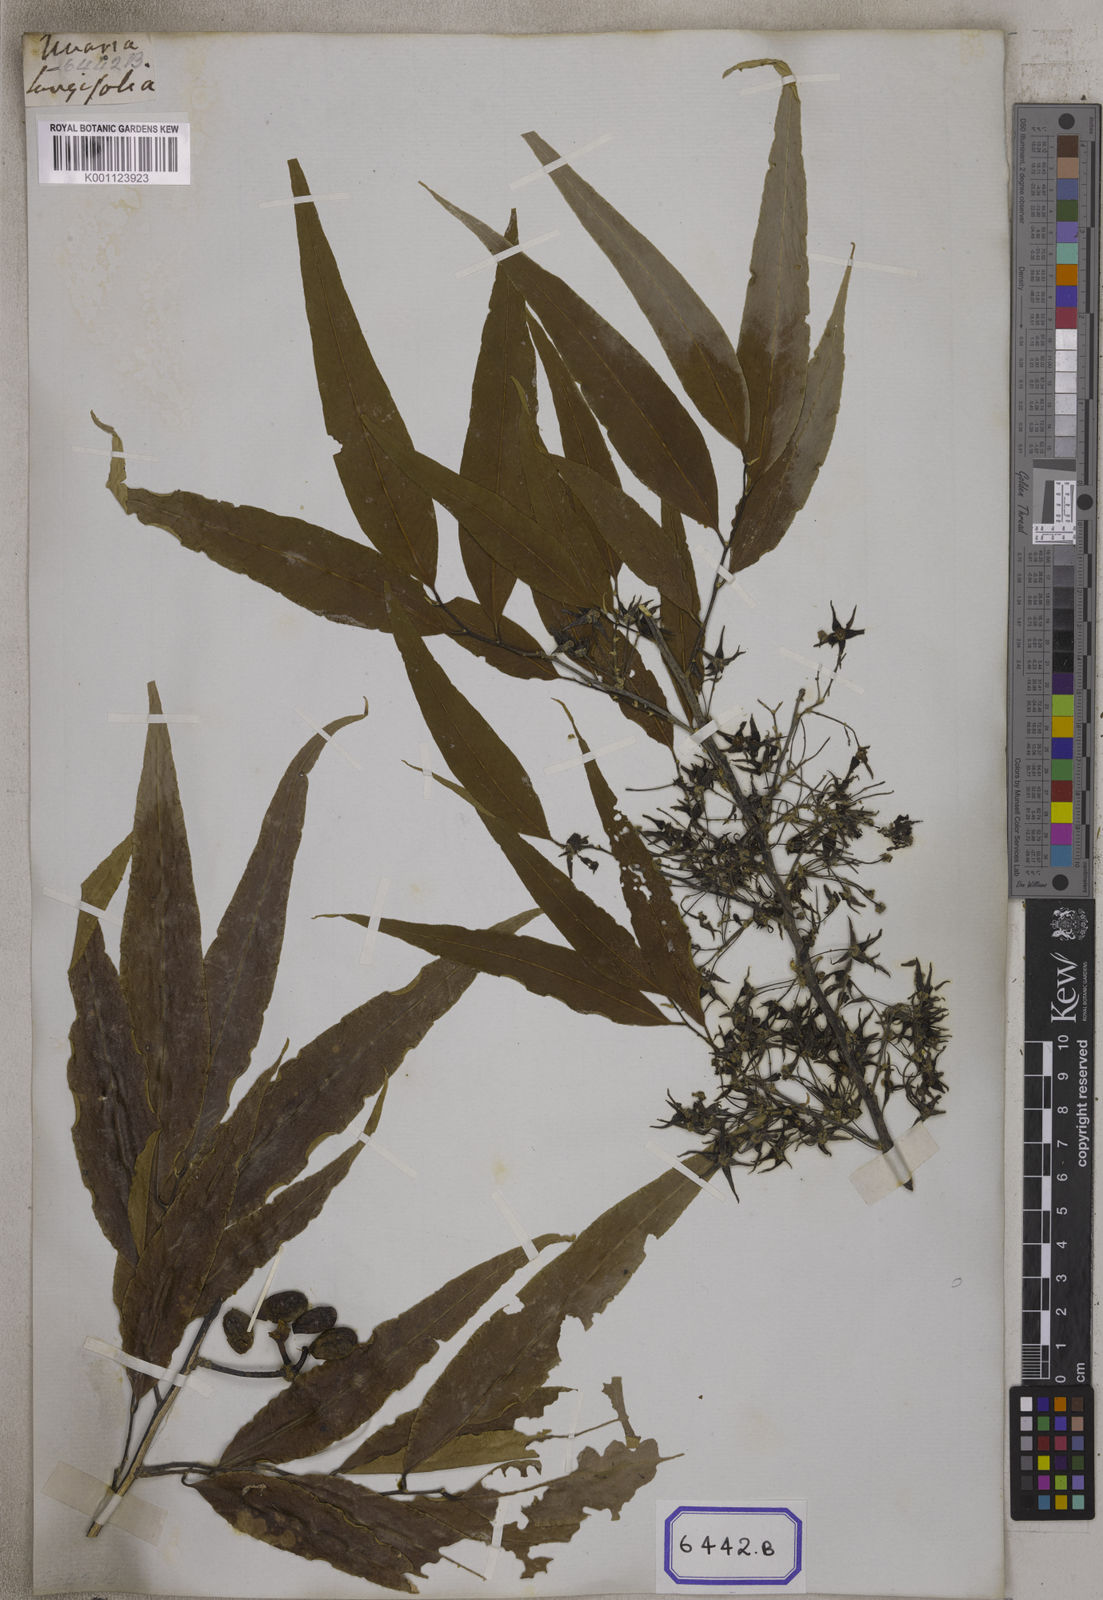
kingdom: Plantae
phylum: Tracheophyta
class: Magnoliopsida
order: Magnoliales
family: Annonaceae
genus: Polyalthia
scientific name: Polyalthia longifolia
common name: Cemetery-tree
